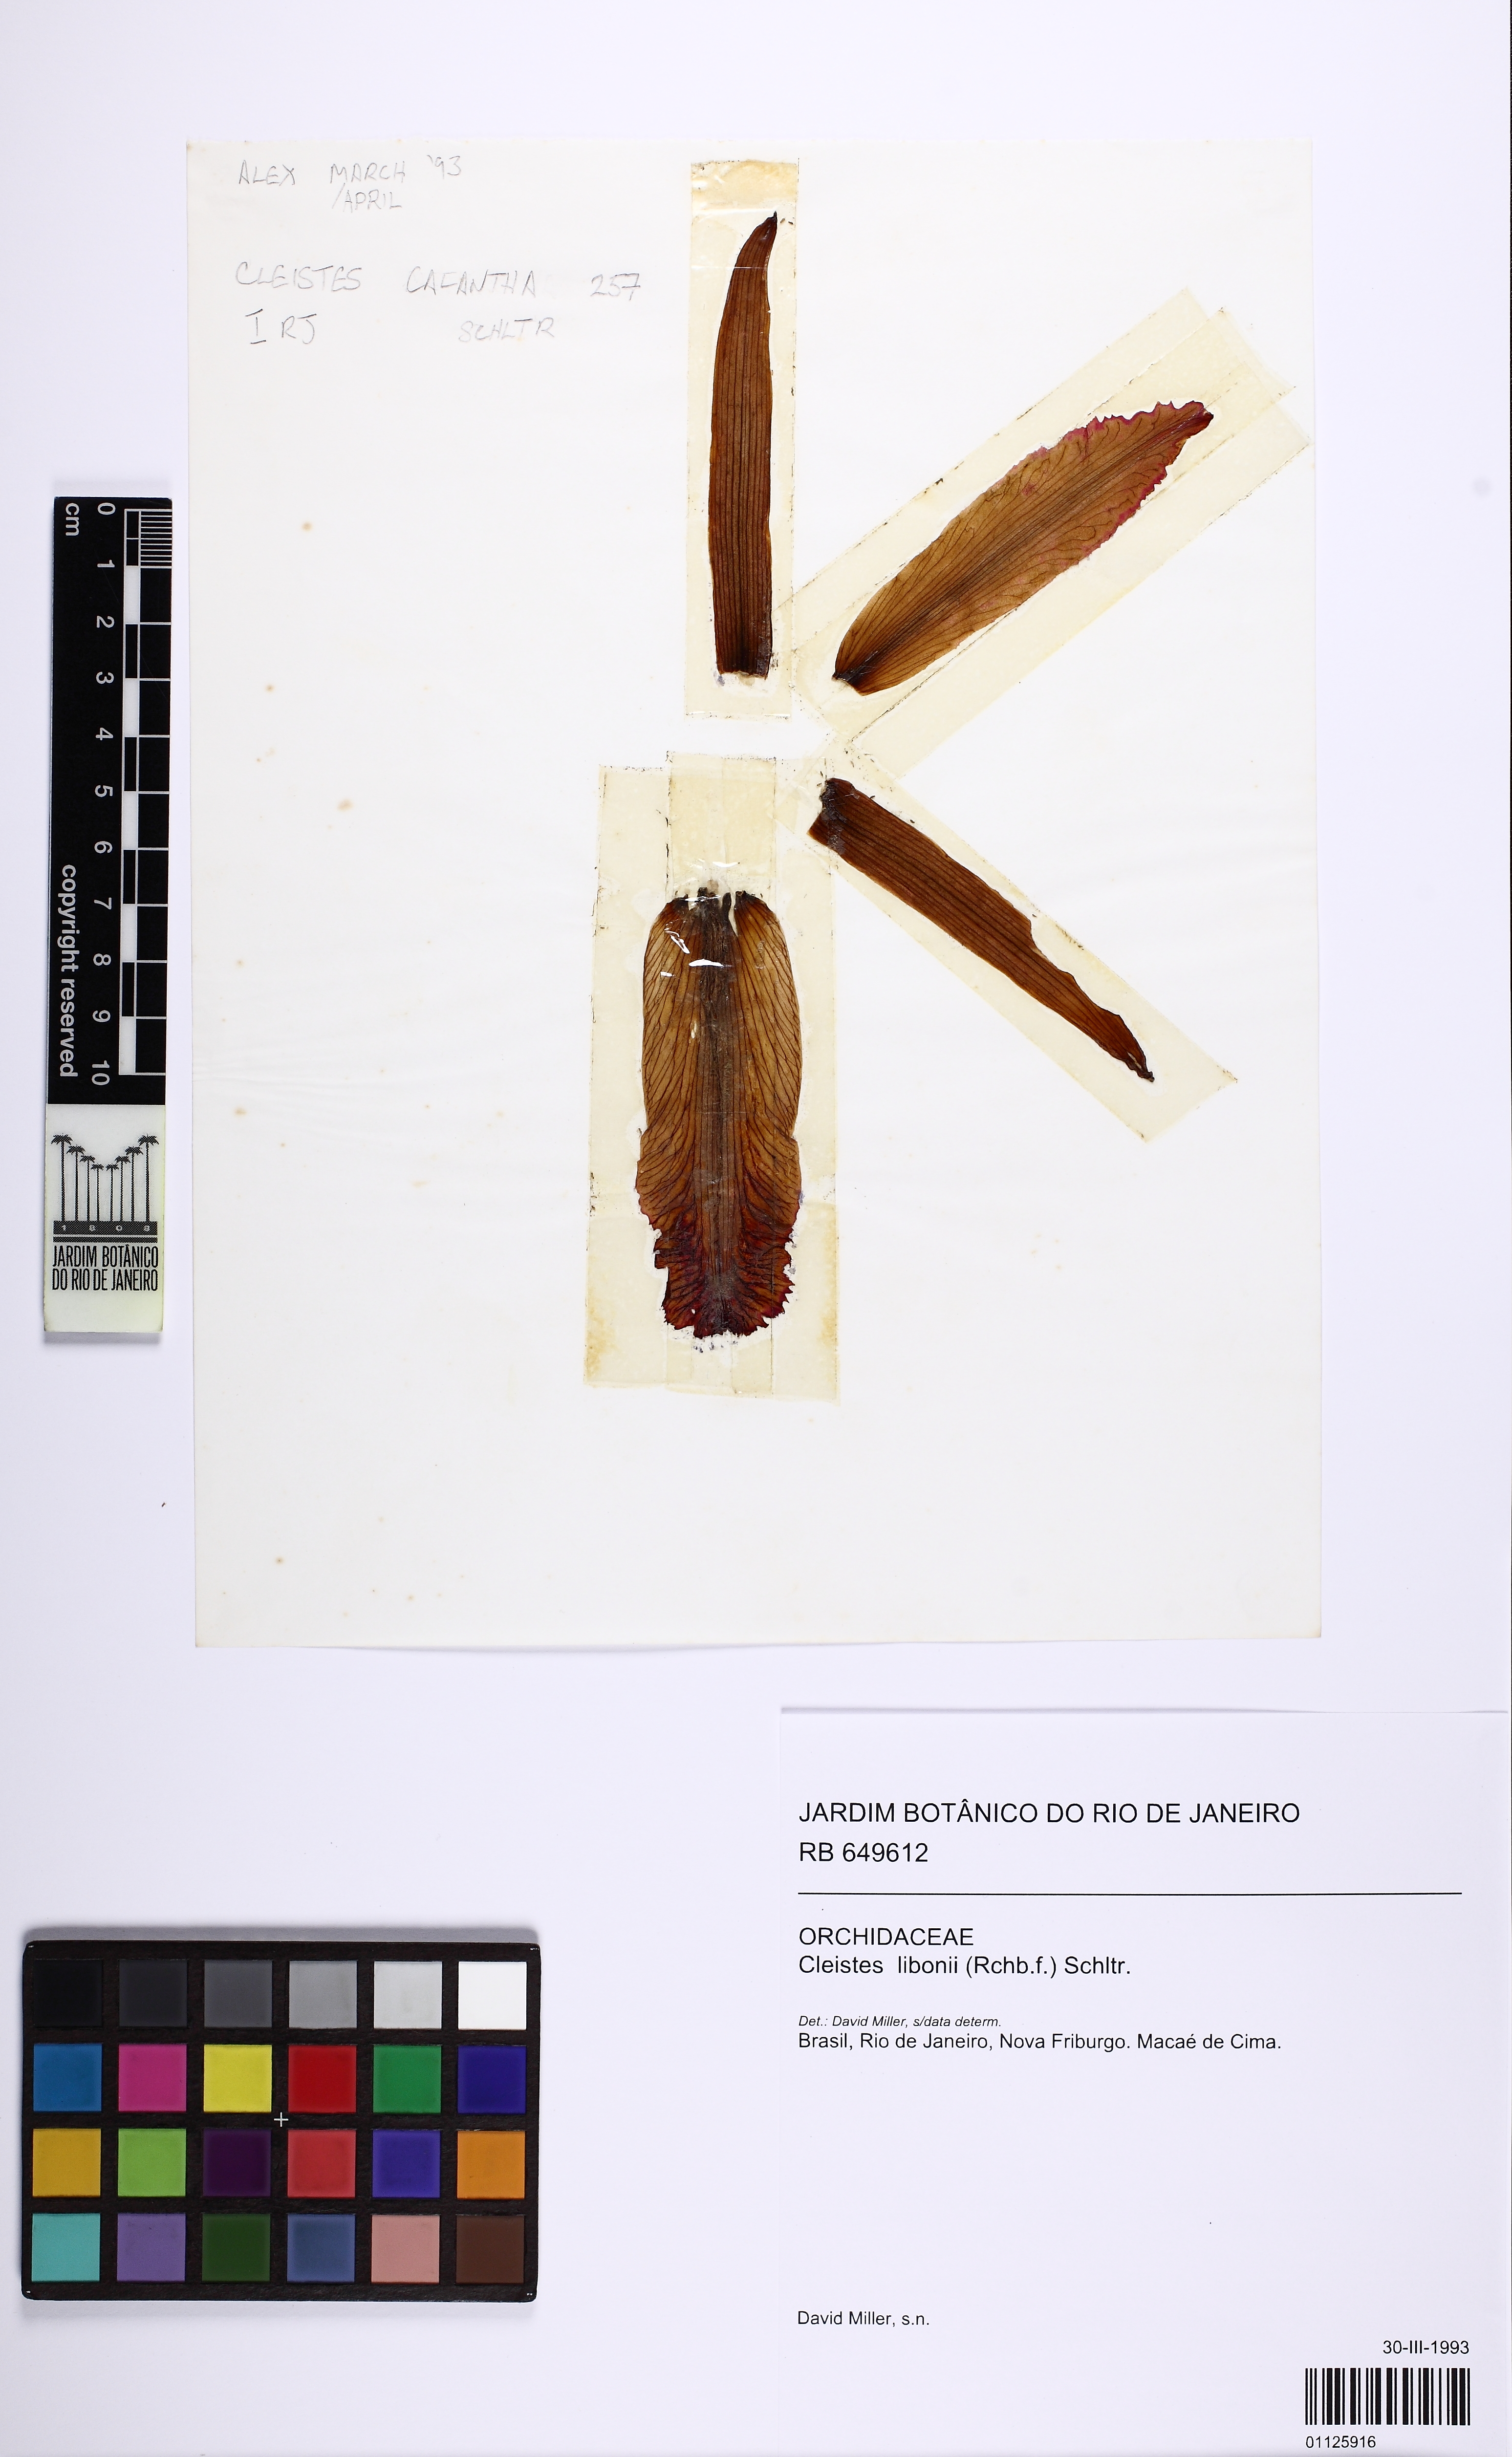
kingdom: Plantae
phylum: Tracheophyta
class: Liliopsida
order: Asparagales
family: Orchidaceae
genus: Cleistes
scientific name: Cleistes libonii
